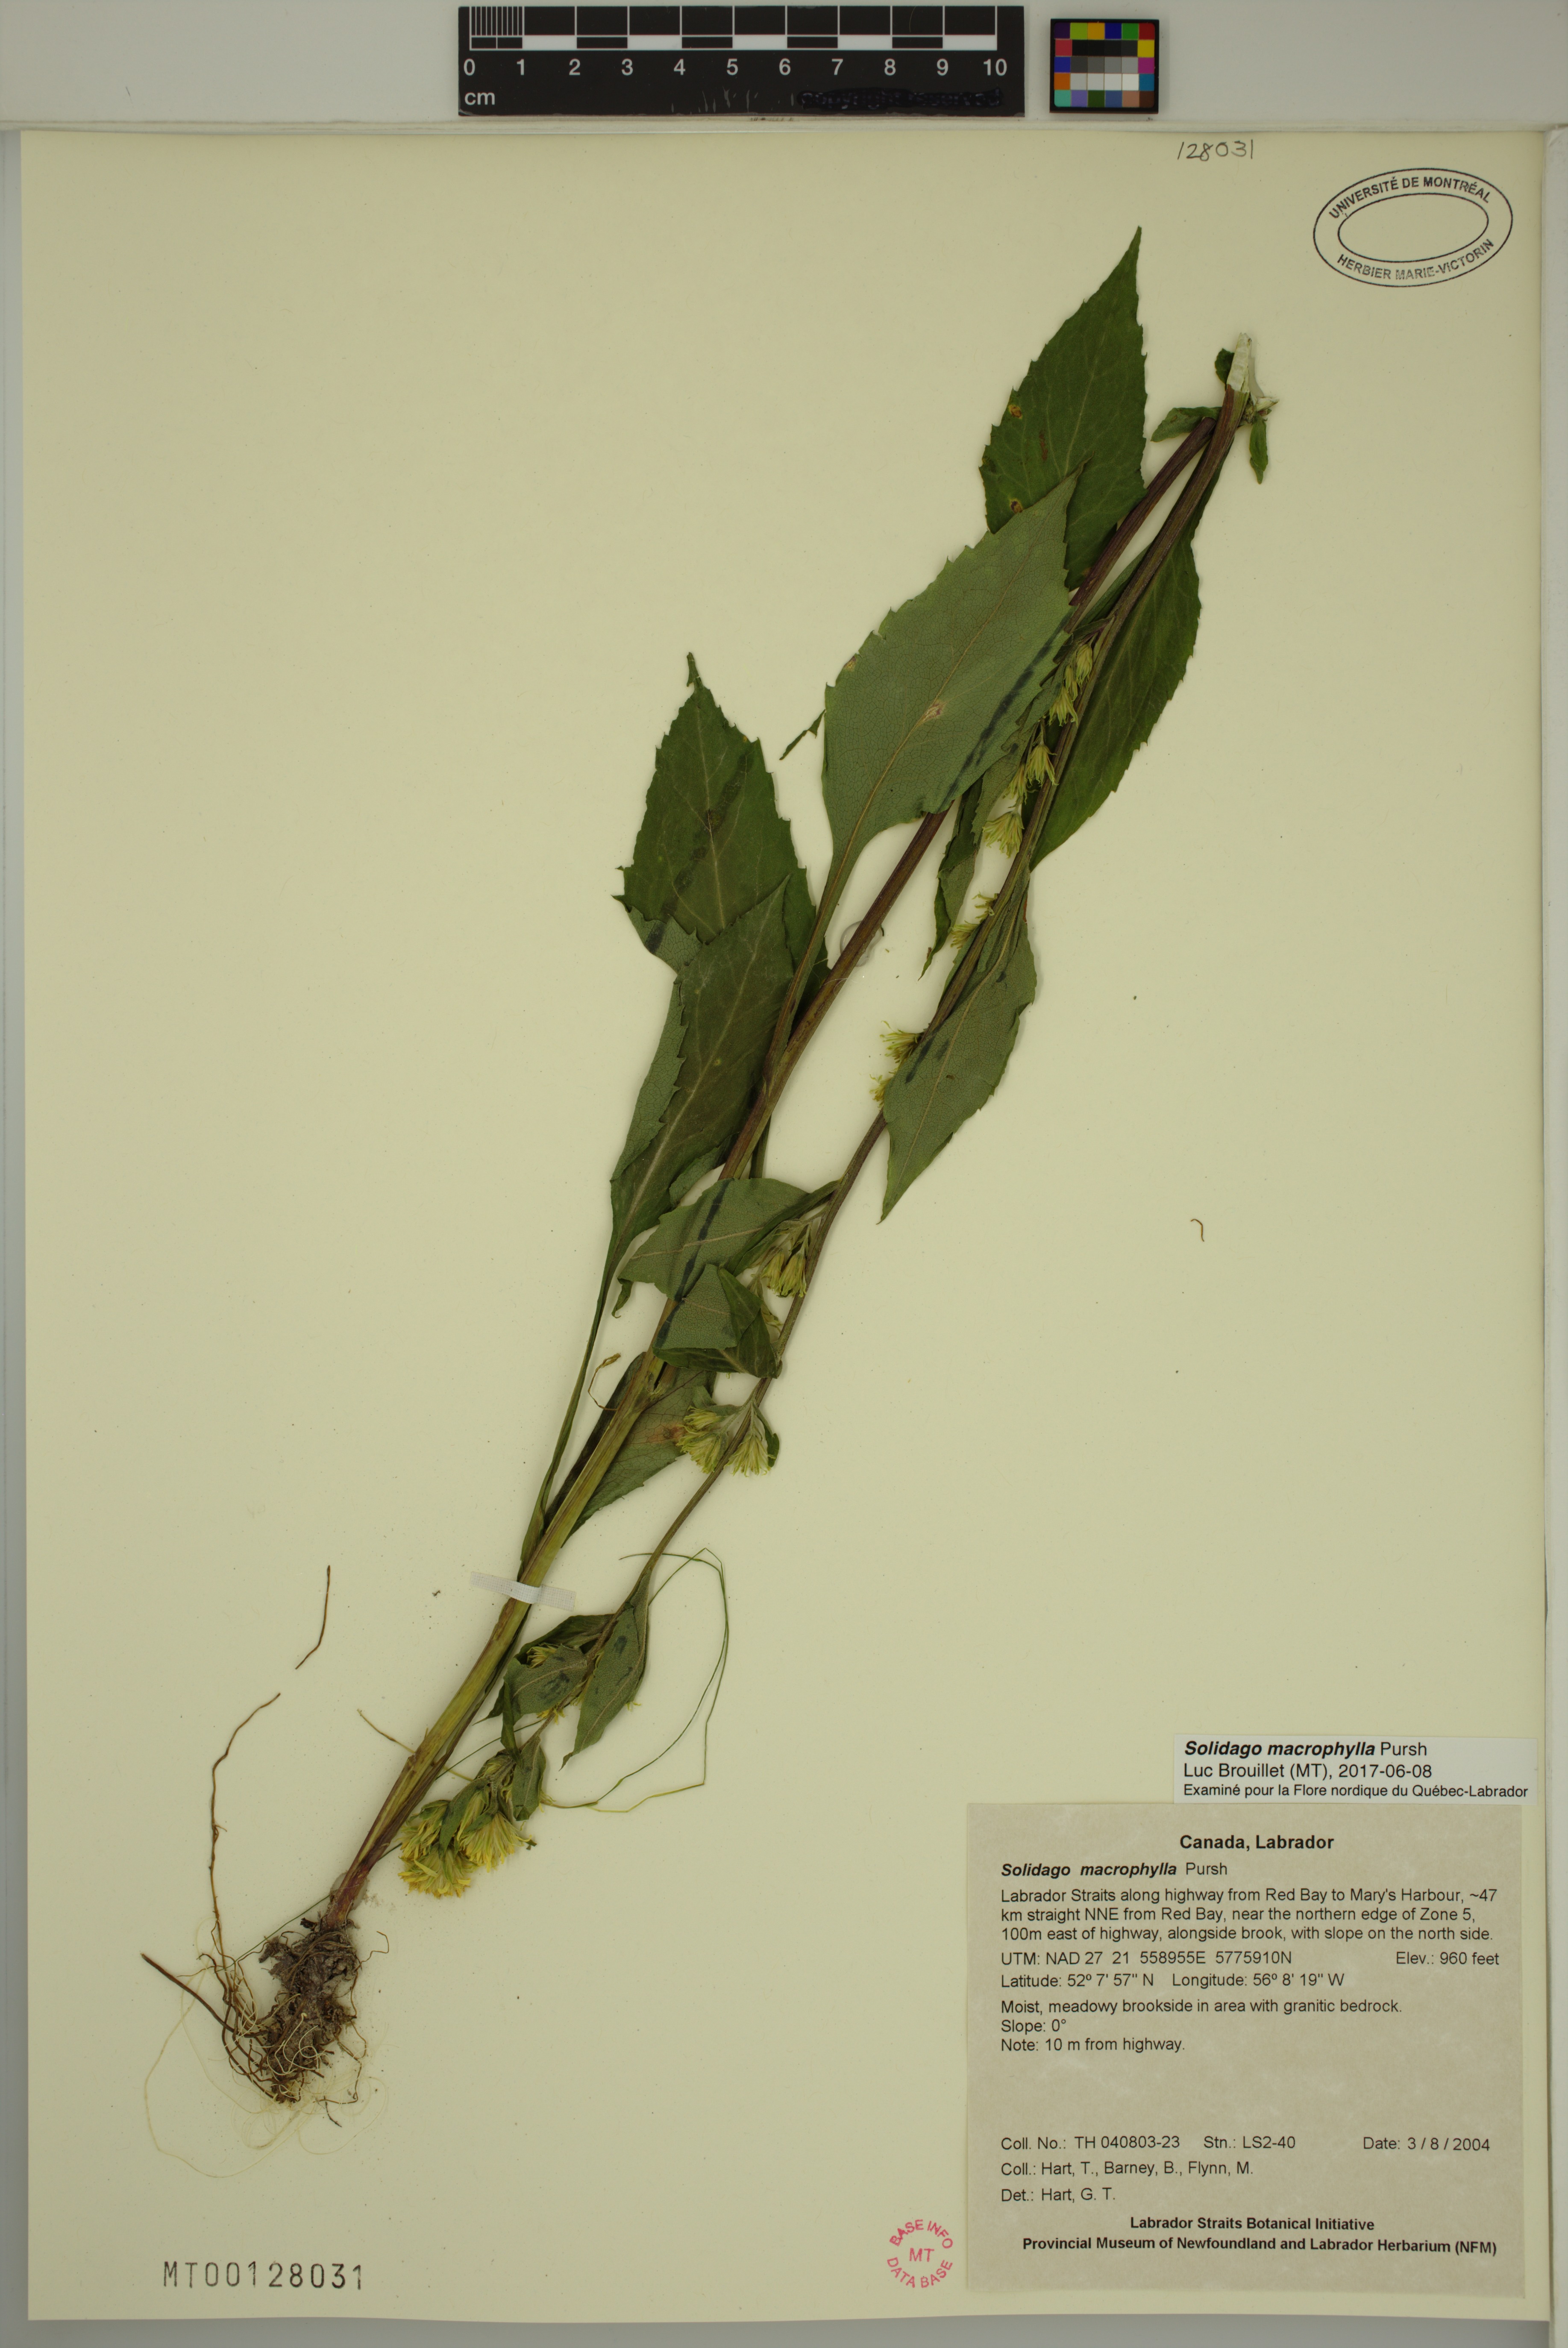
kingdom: Plantae
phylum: Tracheophyta
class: Magnoliopsida
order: Asterales
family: Asteraceae
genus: Solidago
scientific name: Solidago macrophylla
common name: Large-leaved goldenrod
